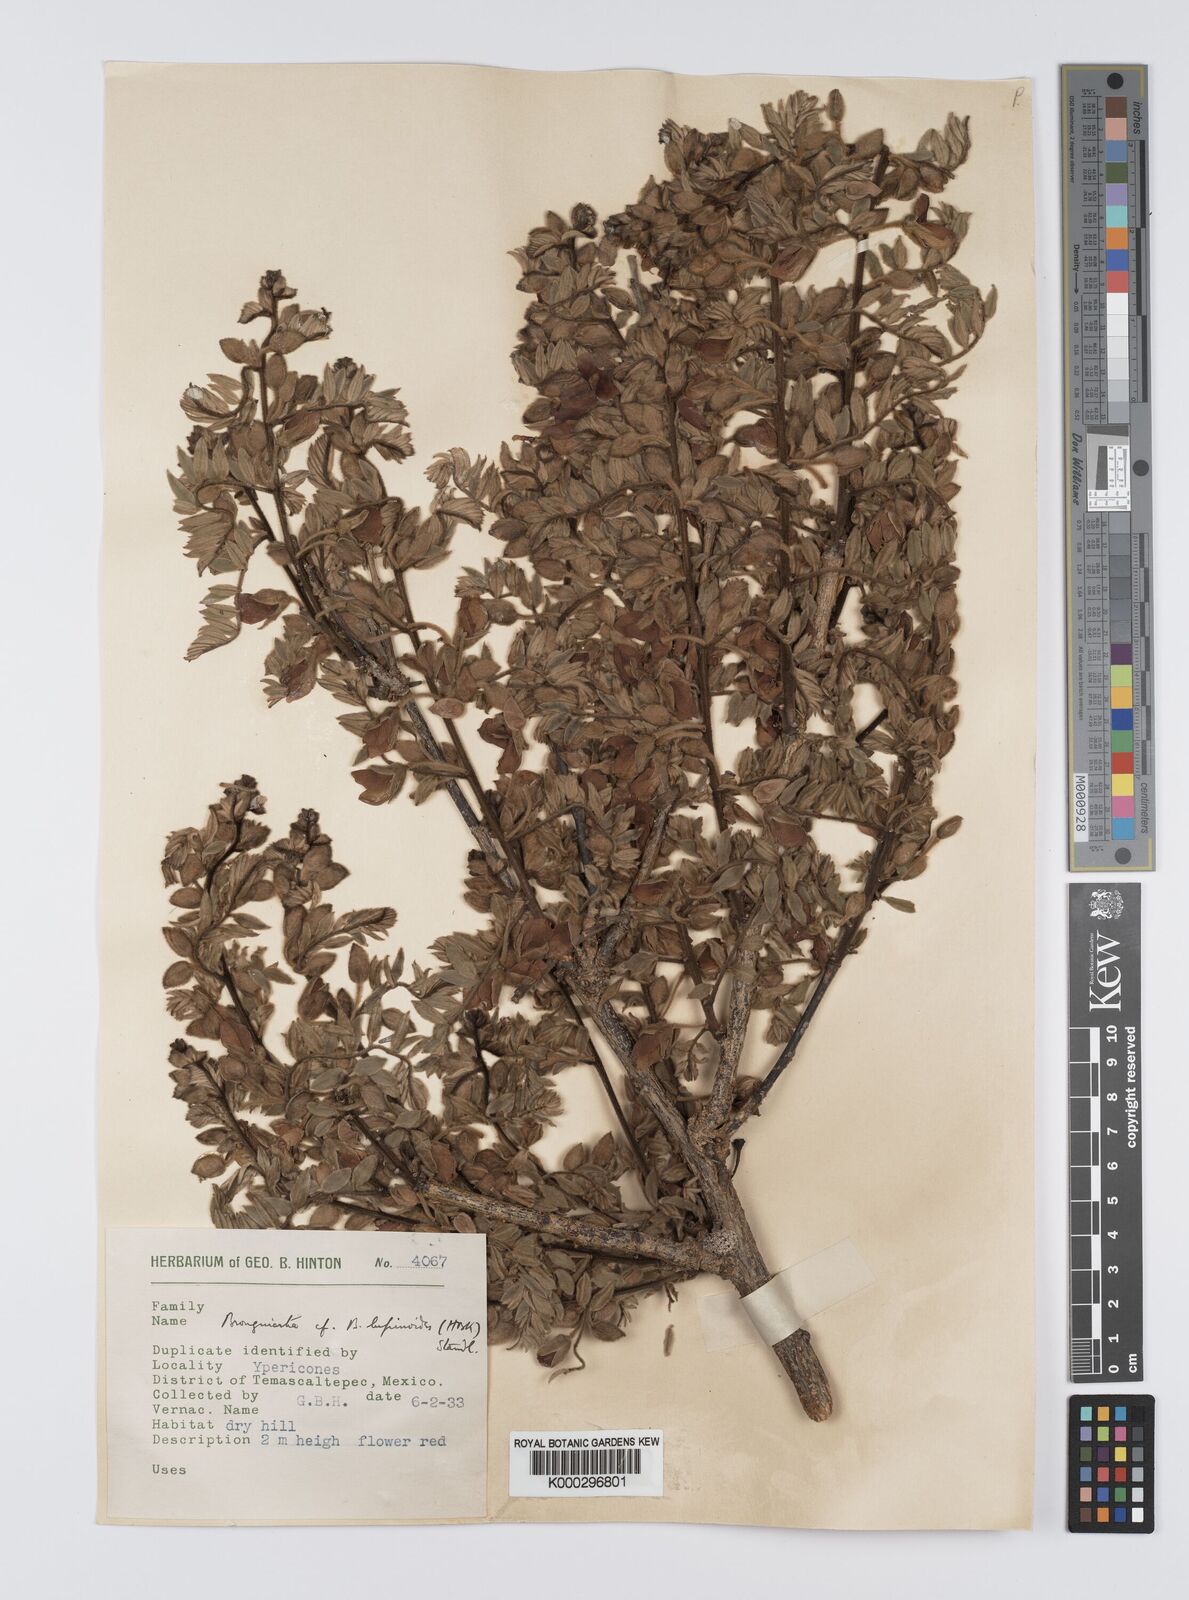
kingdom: Plantae
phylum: Tracheophyta
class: Magnoliopsida
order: Fabales
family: Fabaceae
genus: Brongniartia
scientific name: Brongniartia
